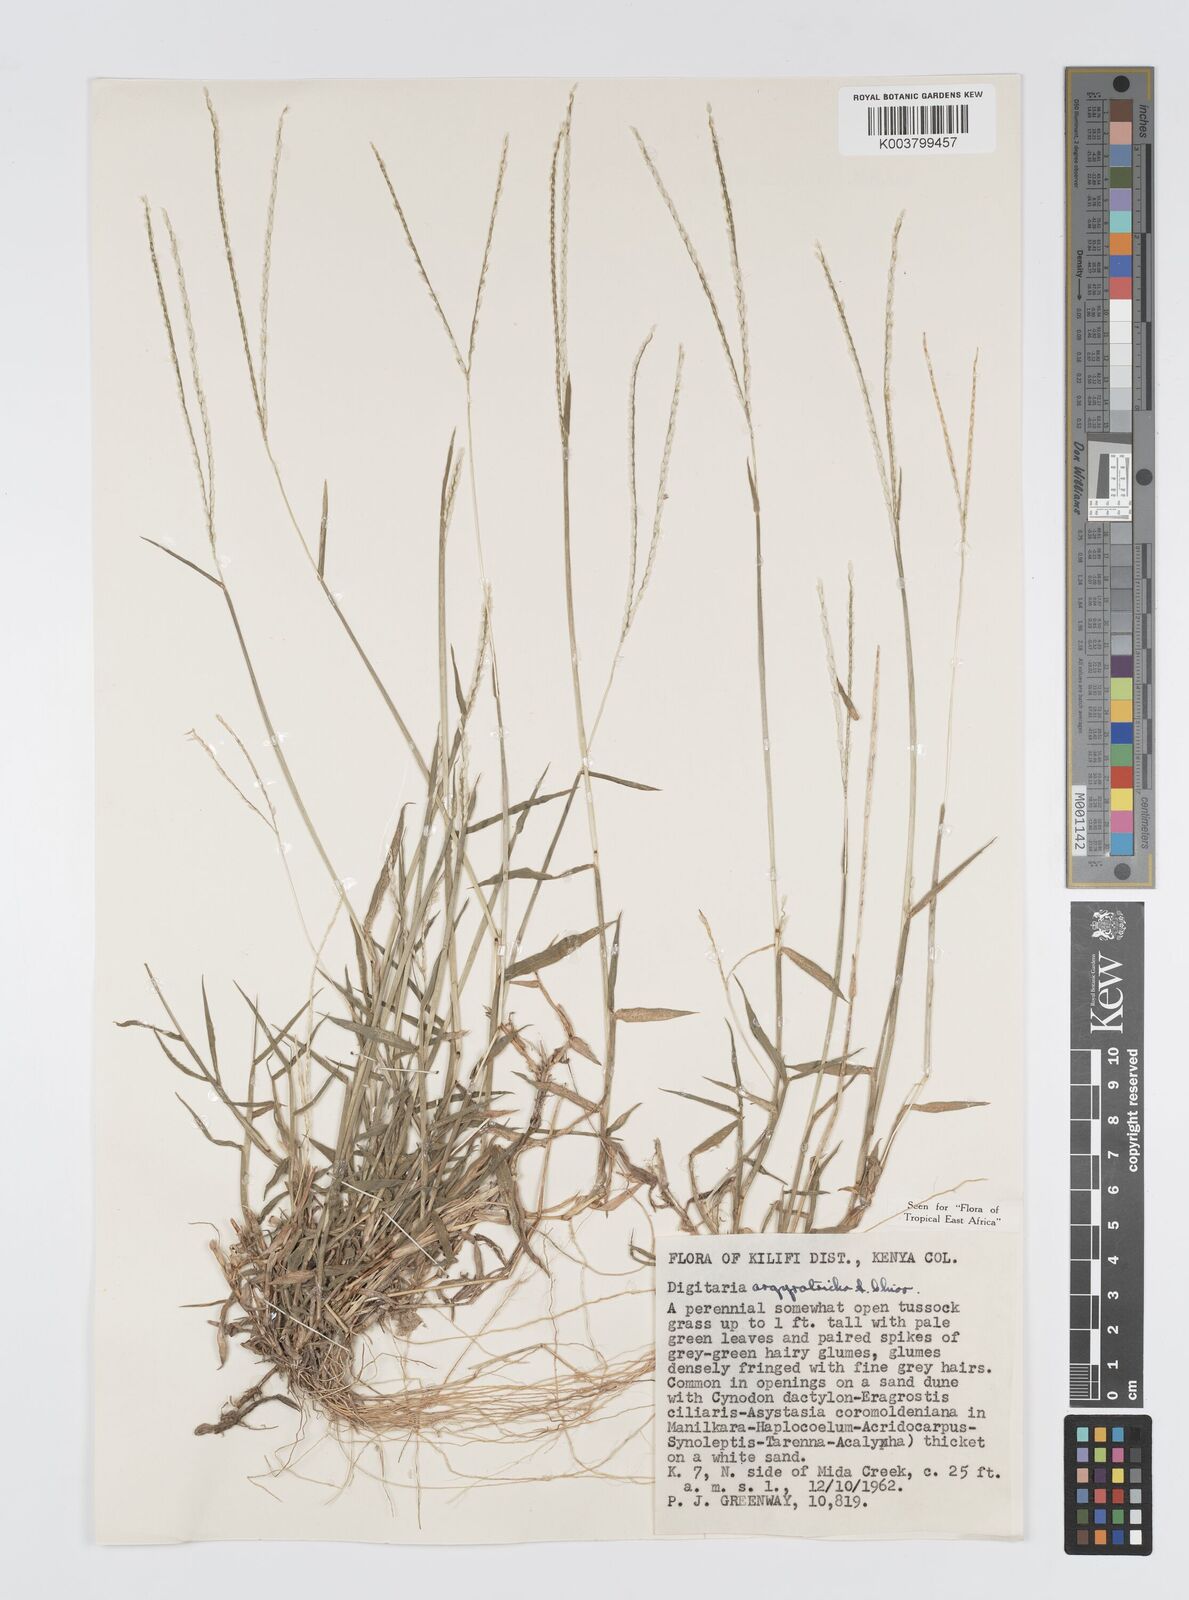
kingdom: Plantae
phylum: Tracheophyta
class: Liliopsida
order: Poales
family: Poaceae
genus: Digitaria
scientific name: Digitaria argyrotricha
